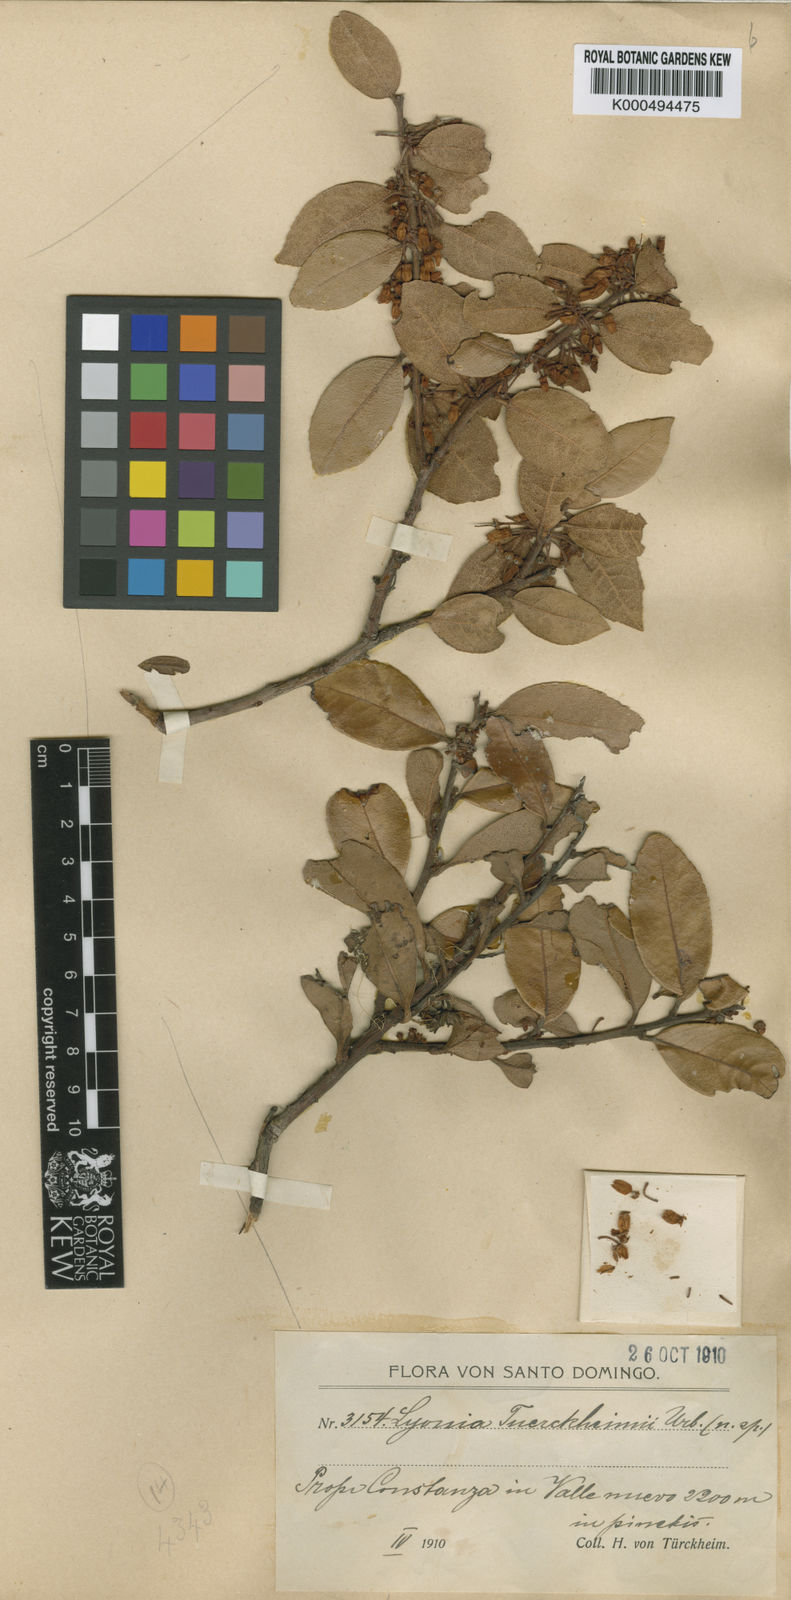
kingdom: Plantae
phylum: Tracheophyta
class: Magnoliopsida
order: Ericales
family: Ericaceae
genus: Lyonia
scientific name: Lyonia tuerckheimii
